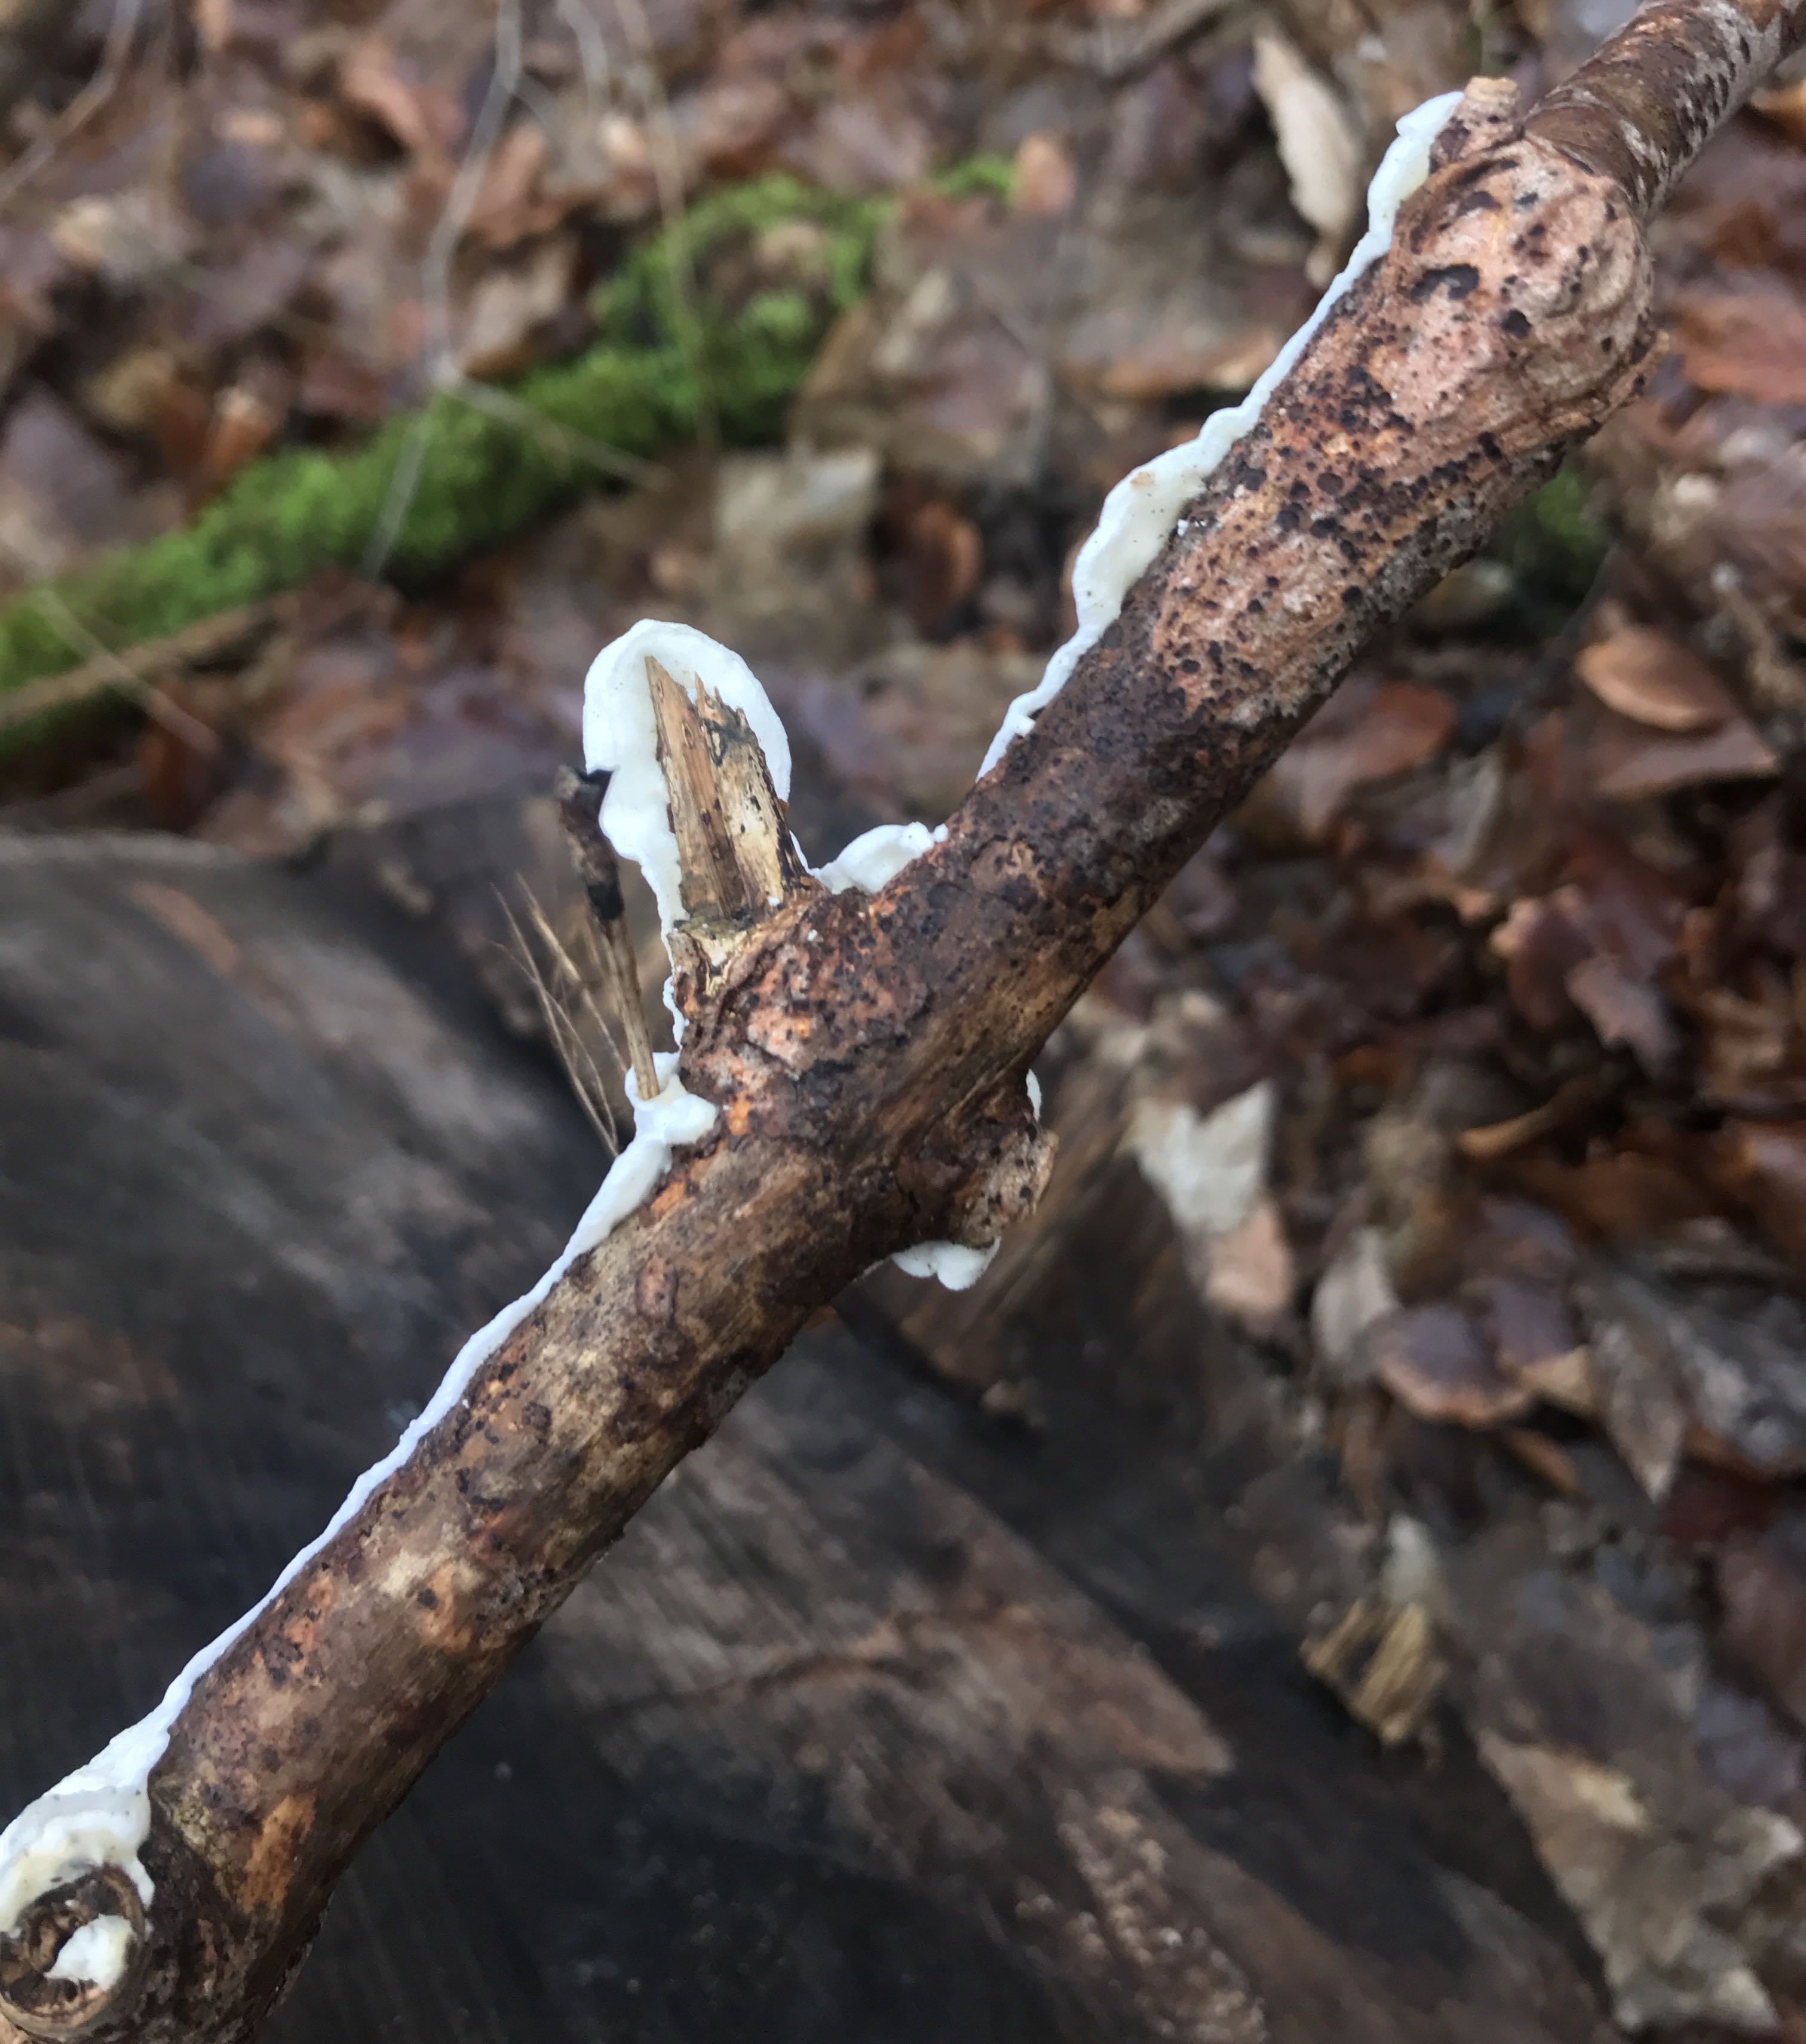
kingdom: Fungi
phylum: Basidiomycota
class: Agaricomycetes
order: Polyporales
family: Irpicaceae
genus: Byssomerulius
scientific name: Byssomerulius corium
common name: læder-åresvamp
